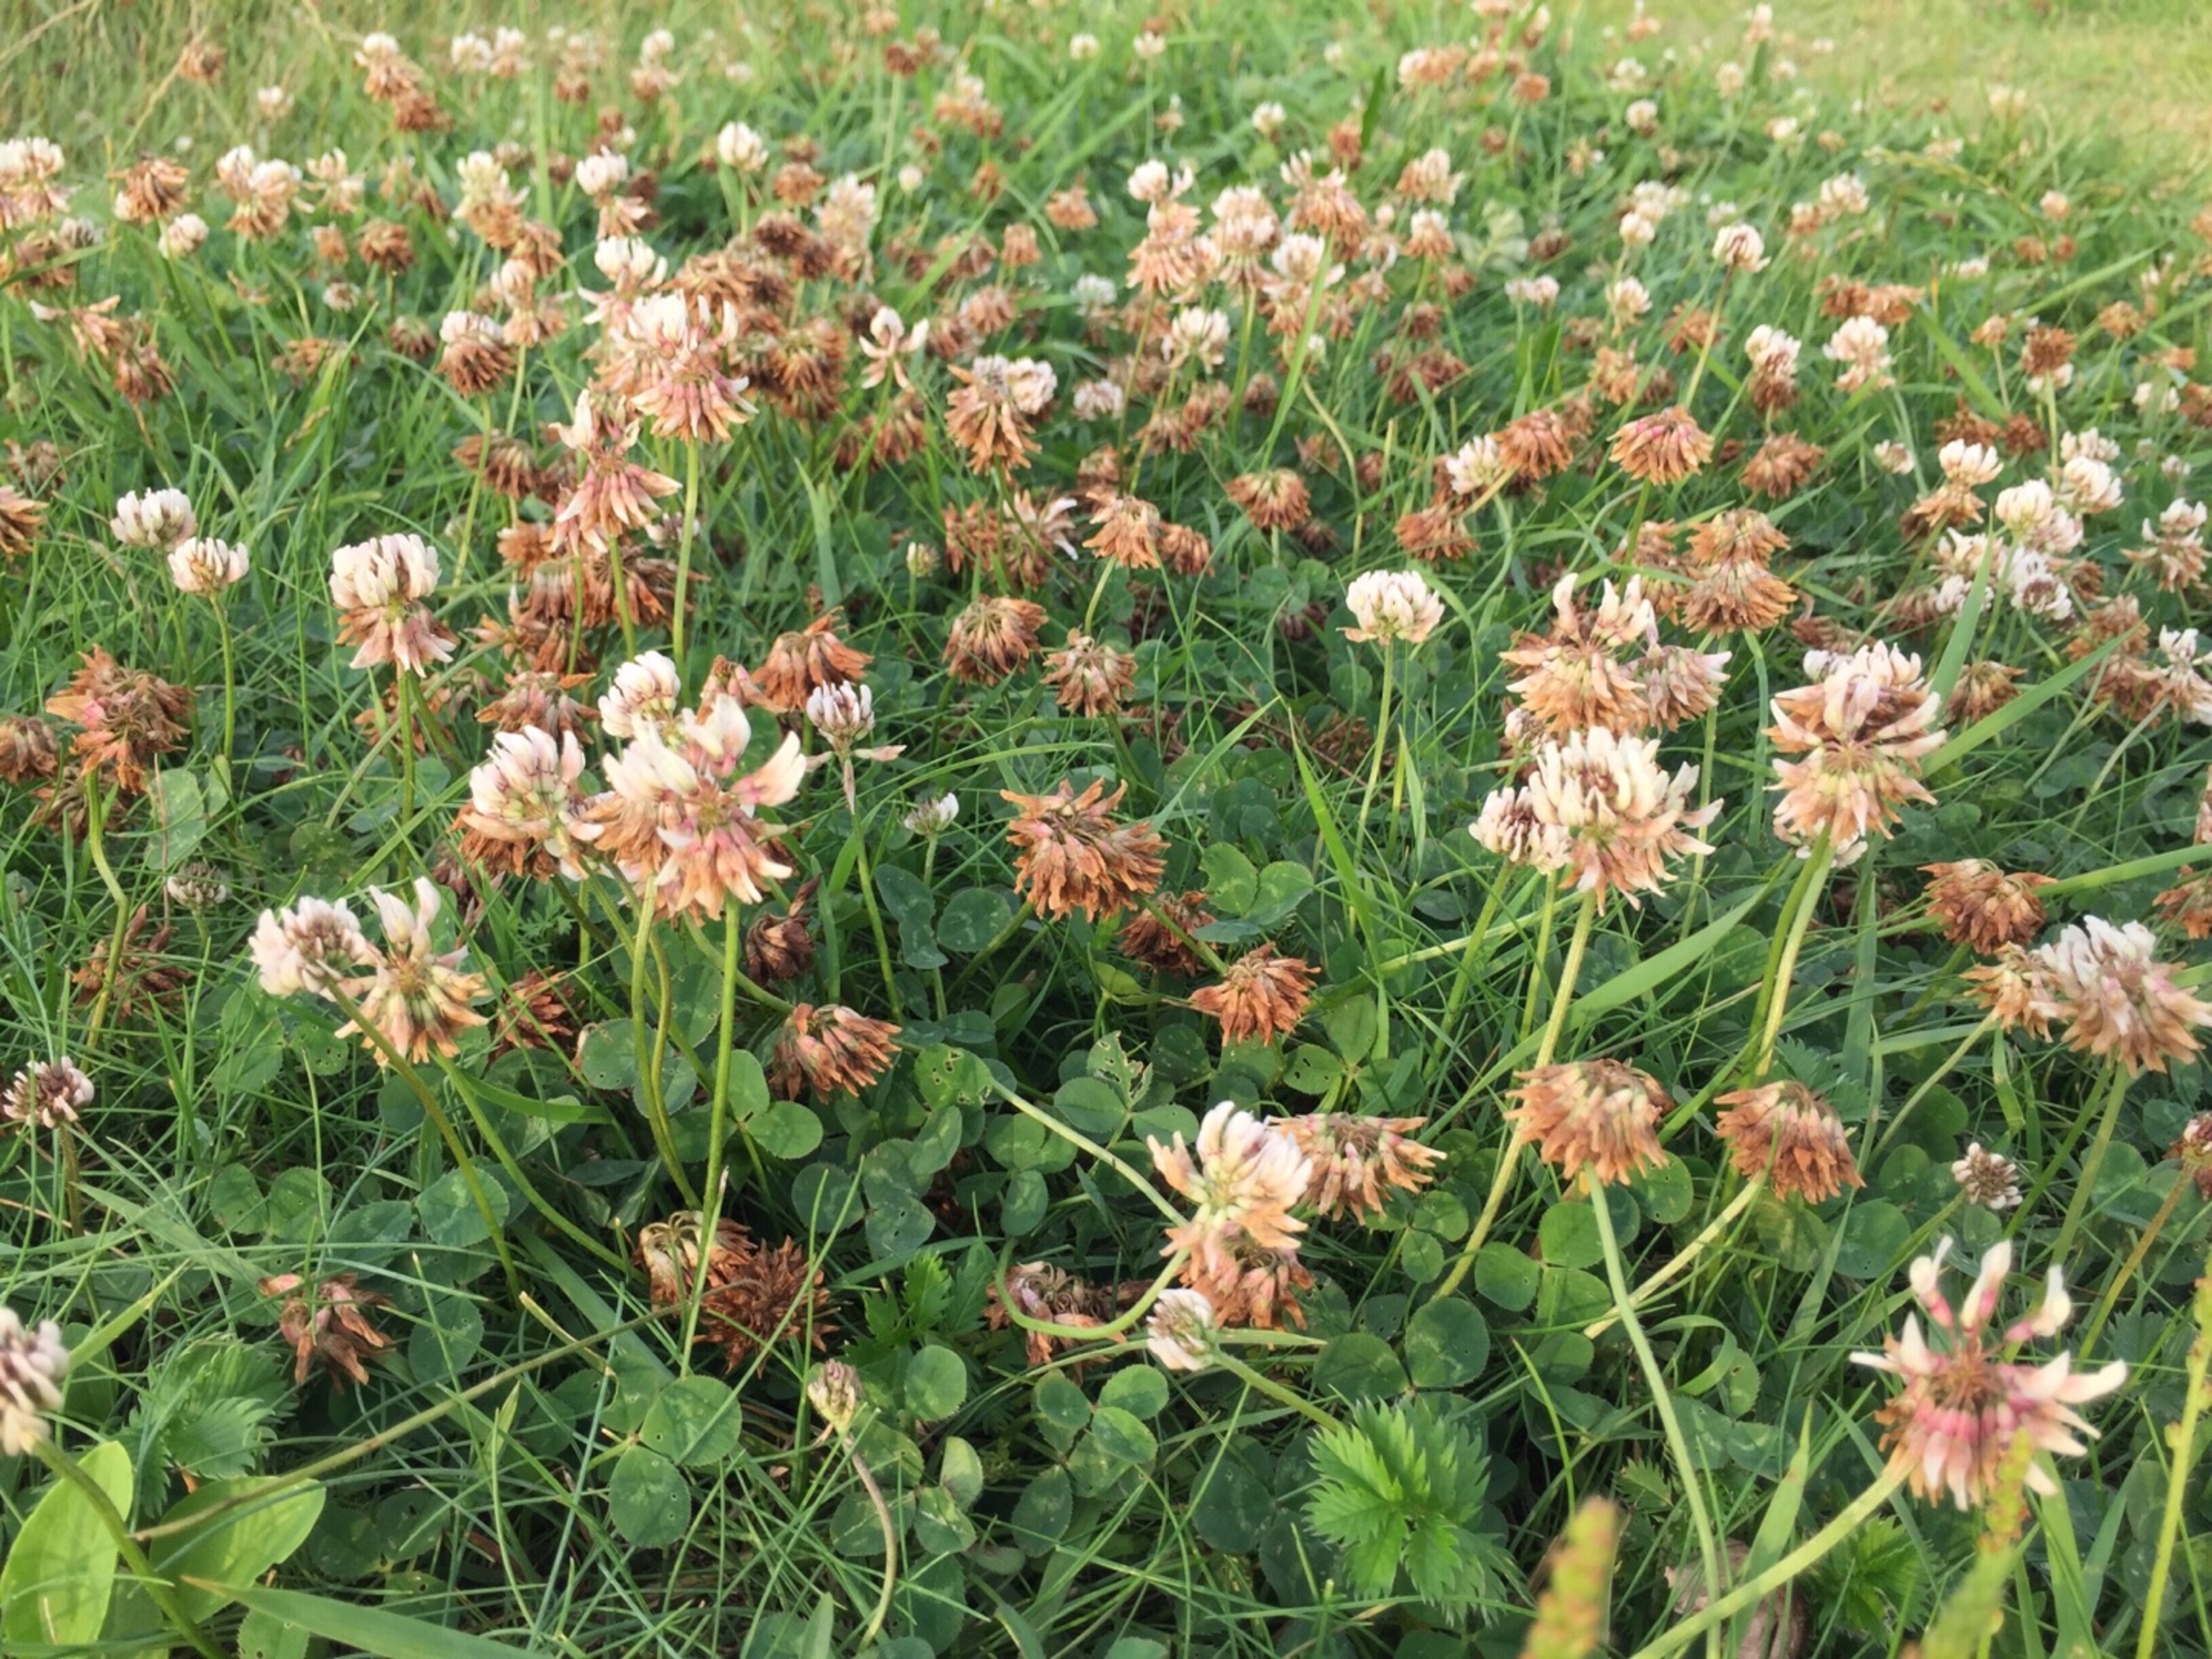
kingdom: Plantae
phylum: Tracheophyta
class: Magnoliopsida
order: Fabales
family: Fabaceae
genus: Trifolium
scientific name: Trifolium repens
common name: Hvid-kløver
